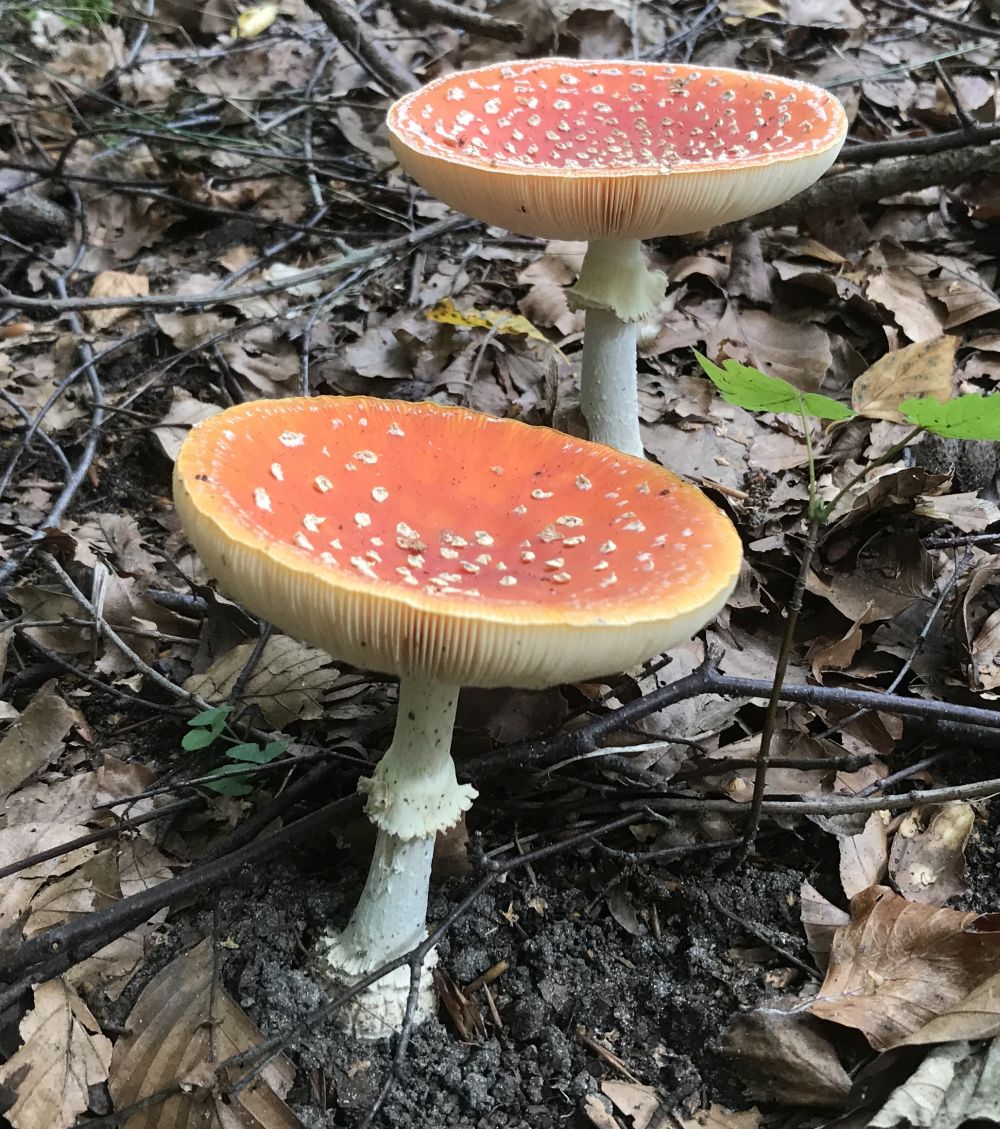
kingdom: Fungi
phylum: Basidiomycota
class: Agaricomycetes
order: Agaricales
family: Amanitaceae
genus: Amanita
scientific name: Amanita muscaria
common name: rød fluesvamp
